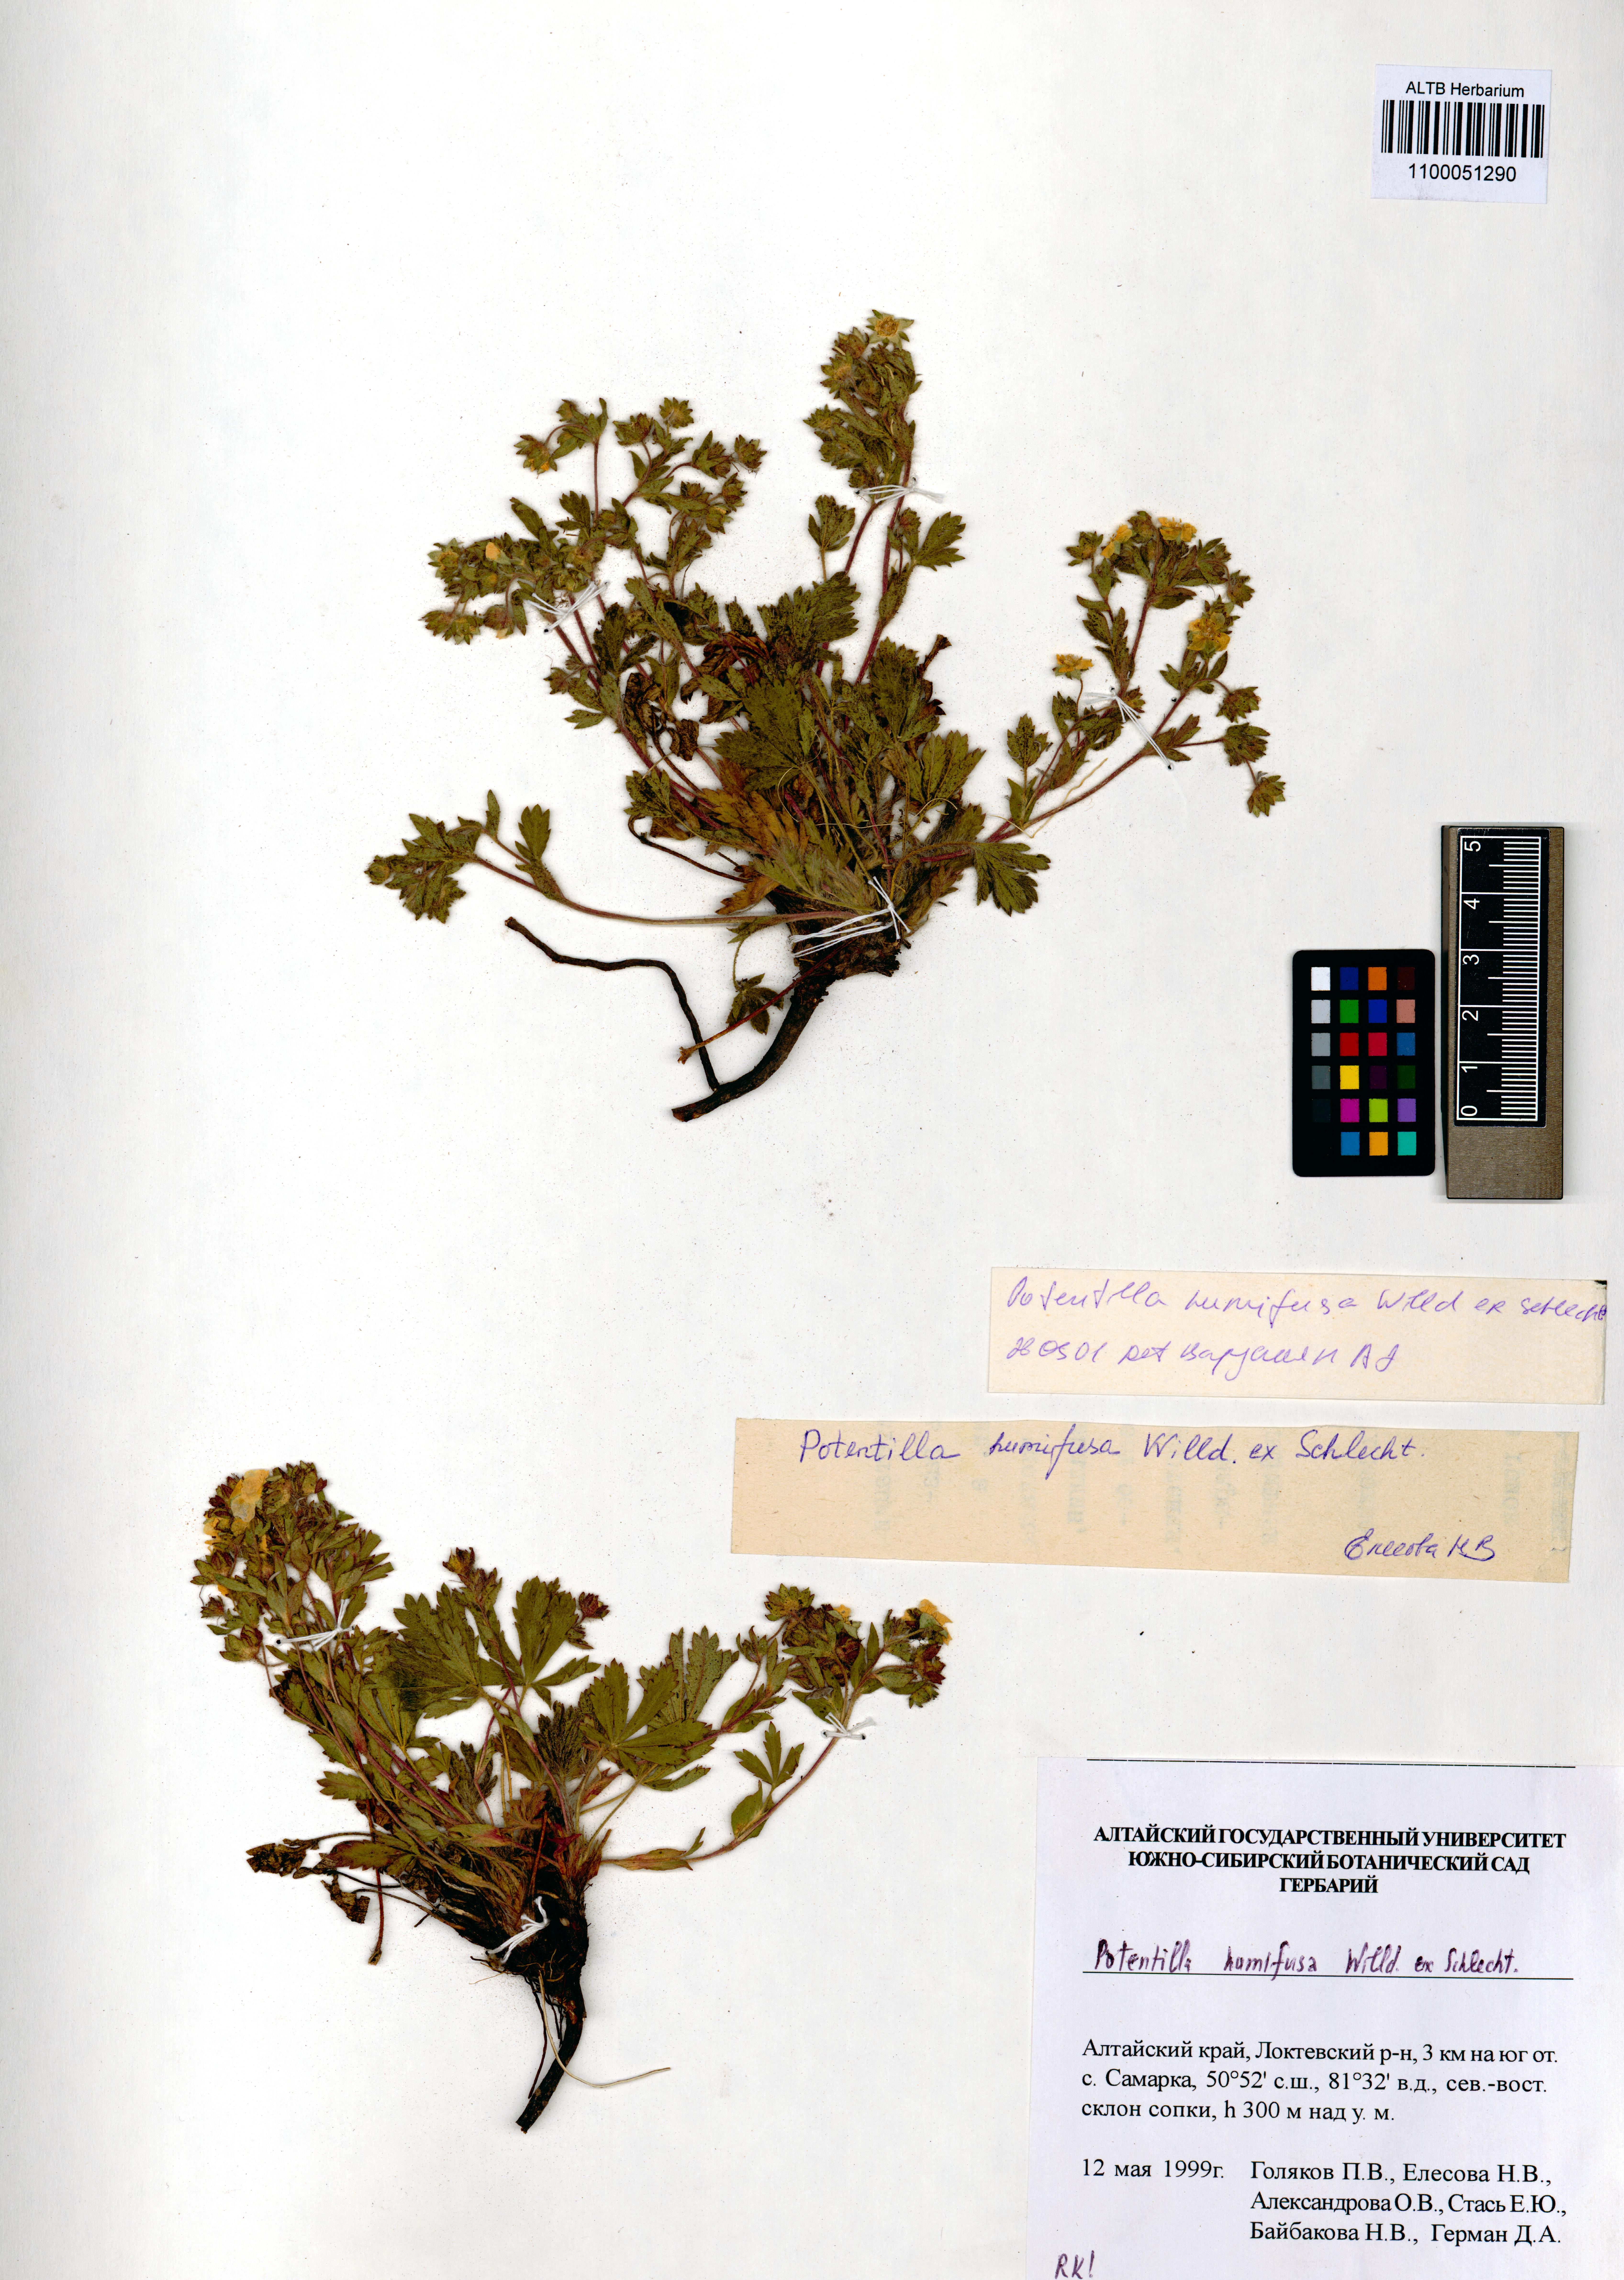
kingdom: Plantae
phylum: Tracheophyta
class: Magnoliopsida
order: Rosales
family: Rosaceae
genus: Potentilla
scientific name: Potentilla humifusa
